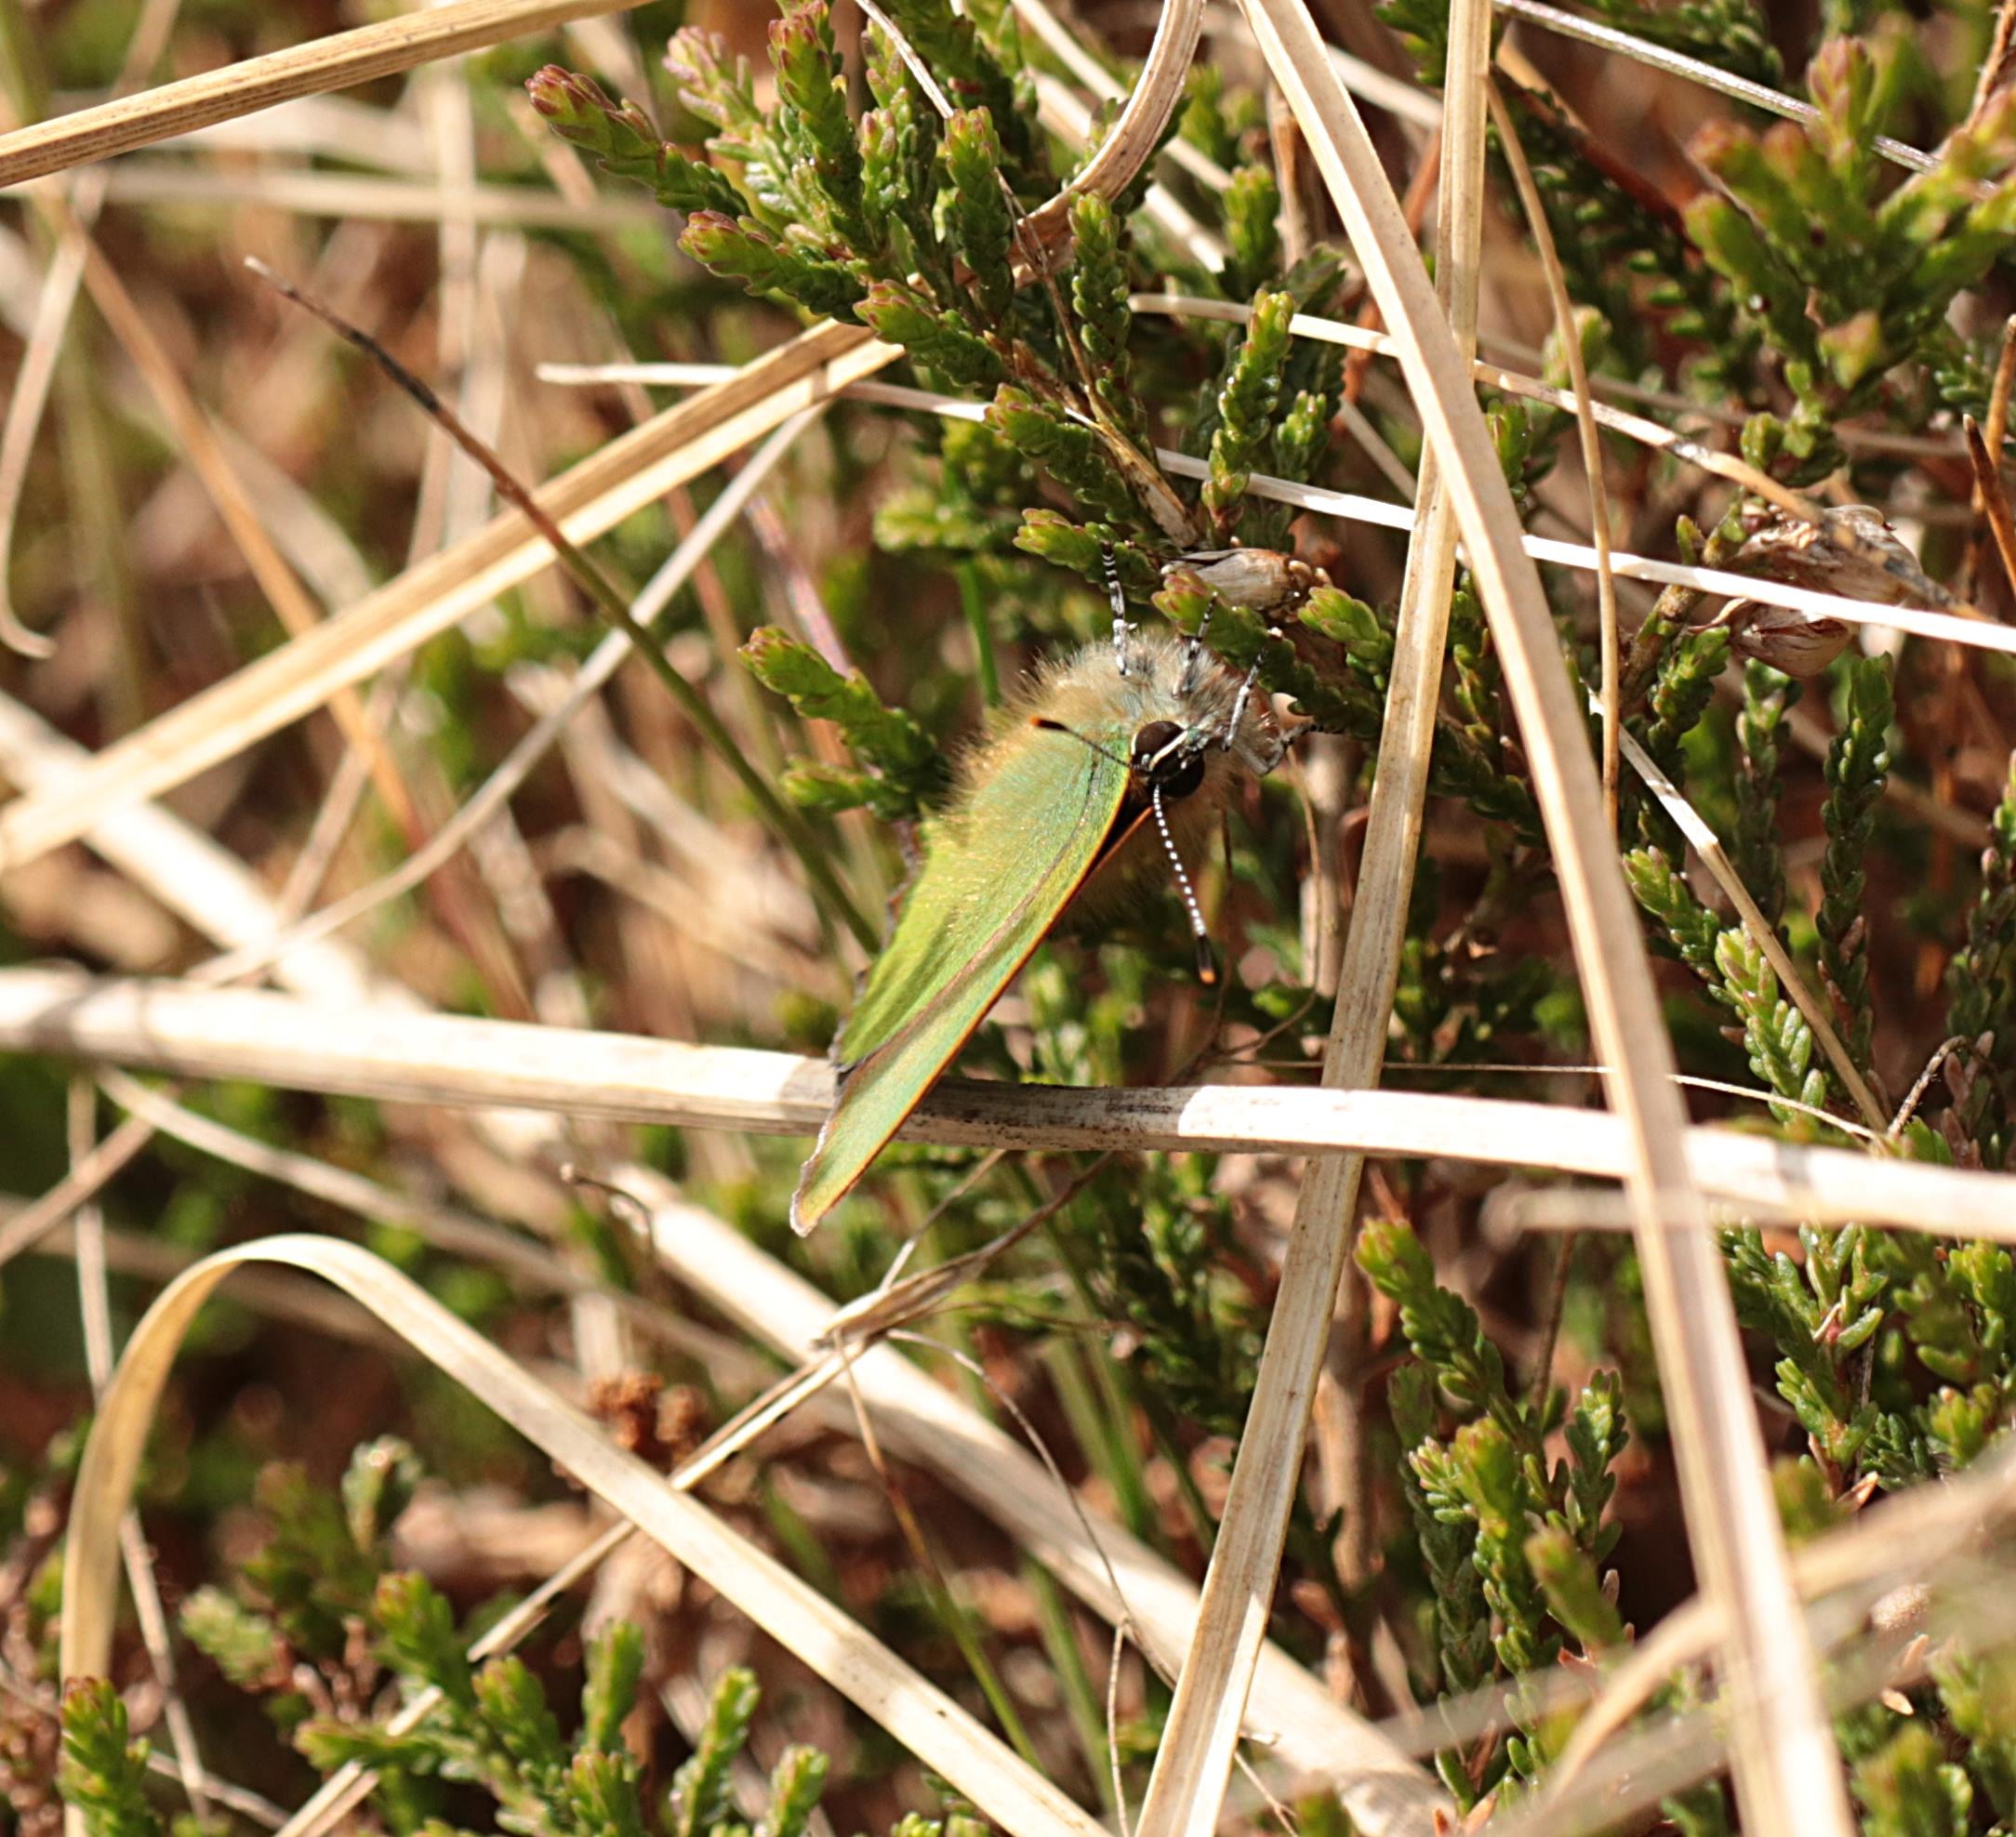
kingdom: Animalia
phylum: Arthropoda
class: Insecta
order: Lepidoptera
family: Lycaenidae
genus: Callophrys
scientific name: Callophrys rubi
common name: Grøn busksommerfugl
